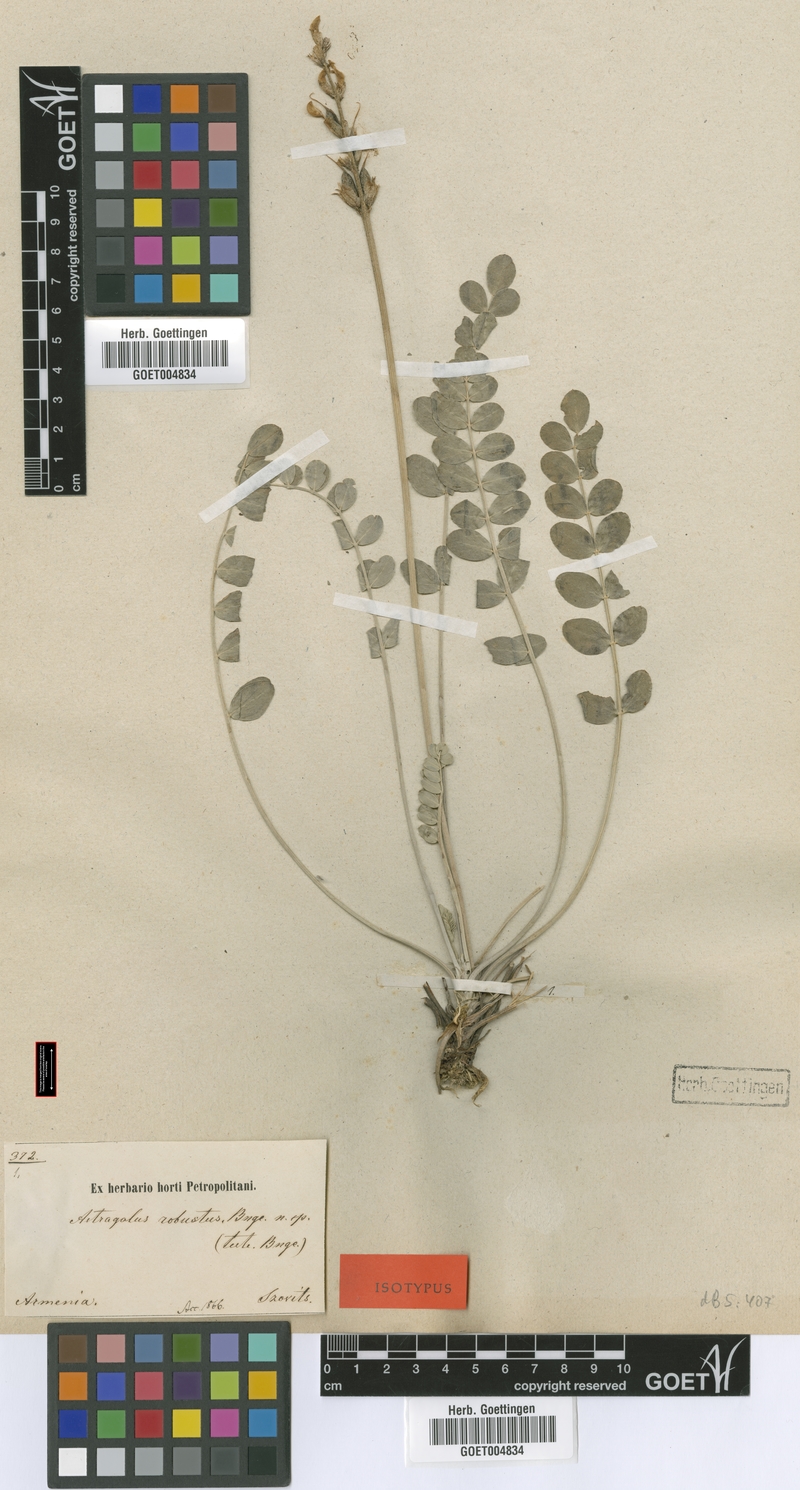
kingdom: Plantae
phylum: Tracheophyta
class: Magnoliopsida
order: Fabales
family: Fabaceae
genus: Astragalus
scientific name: Astragalus robustus
